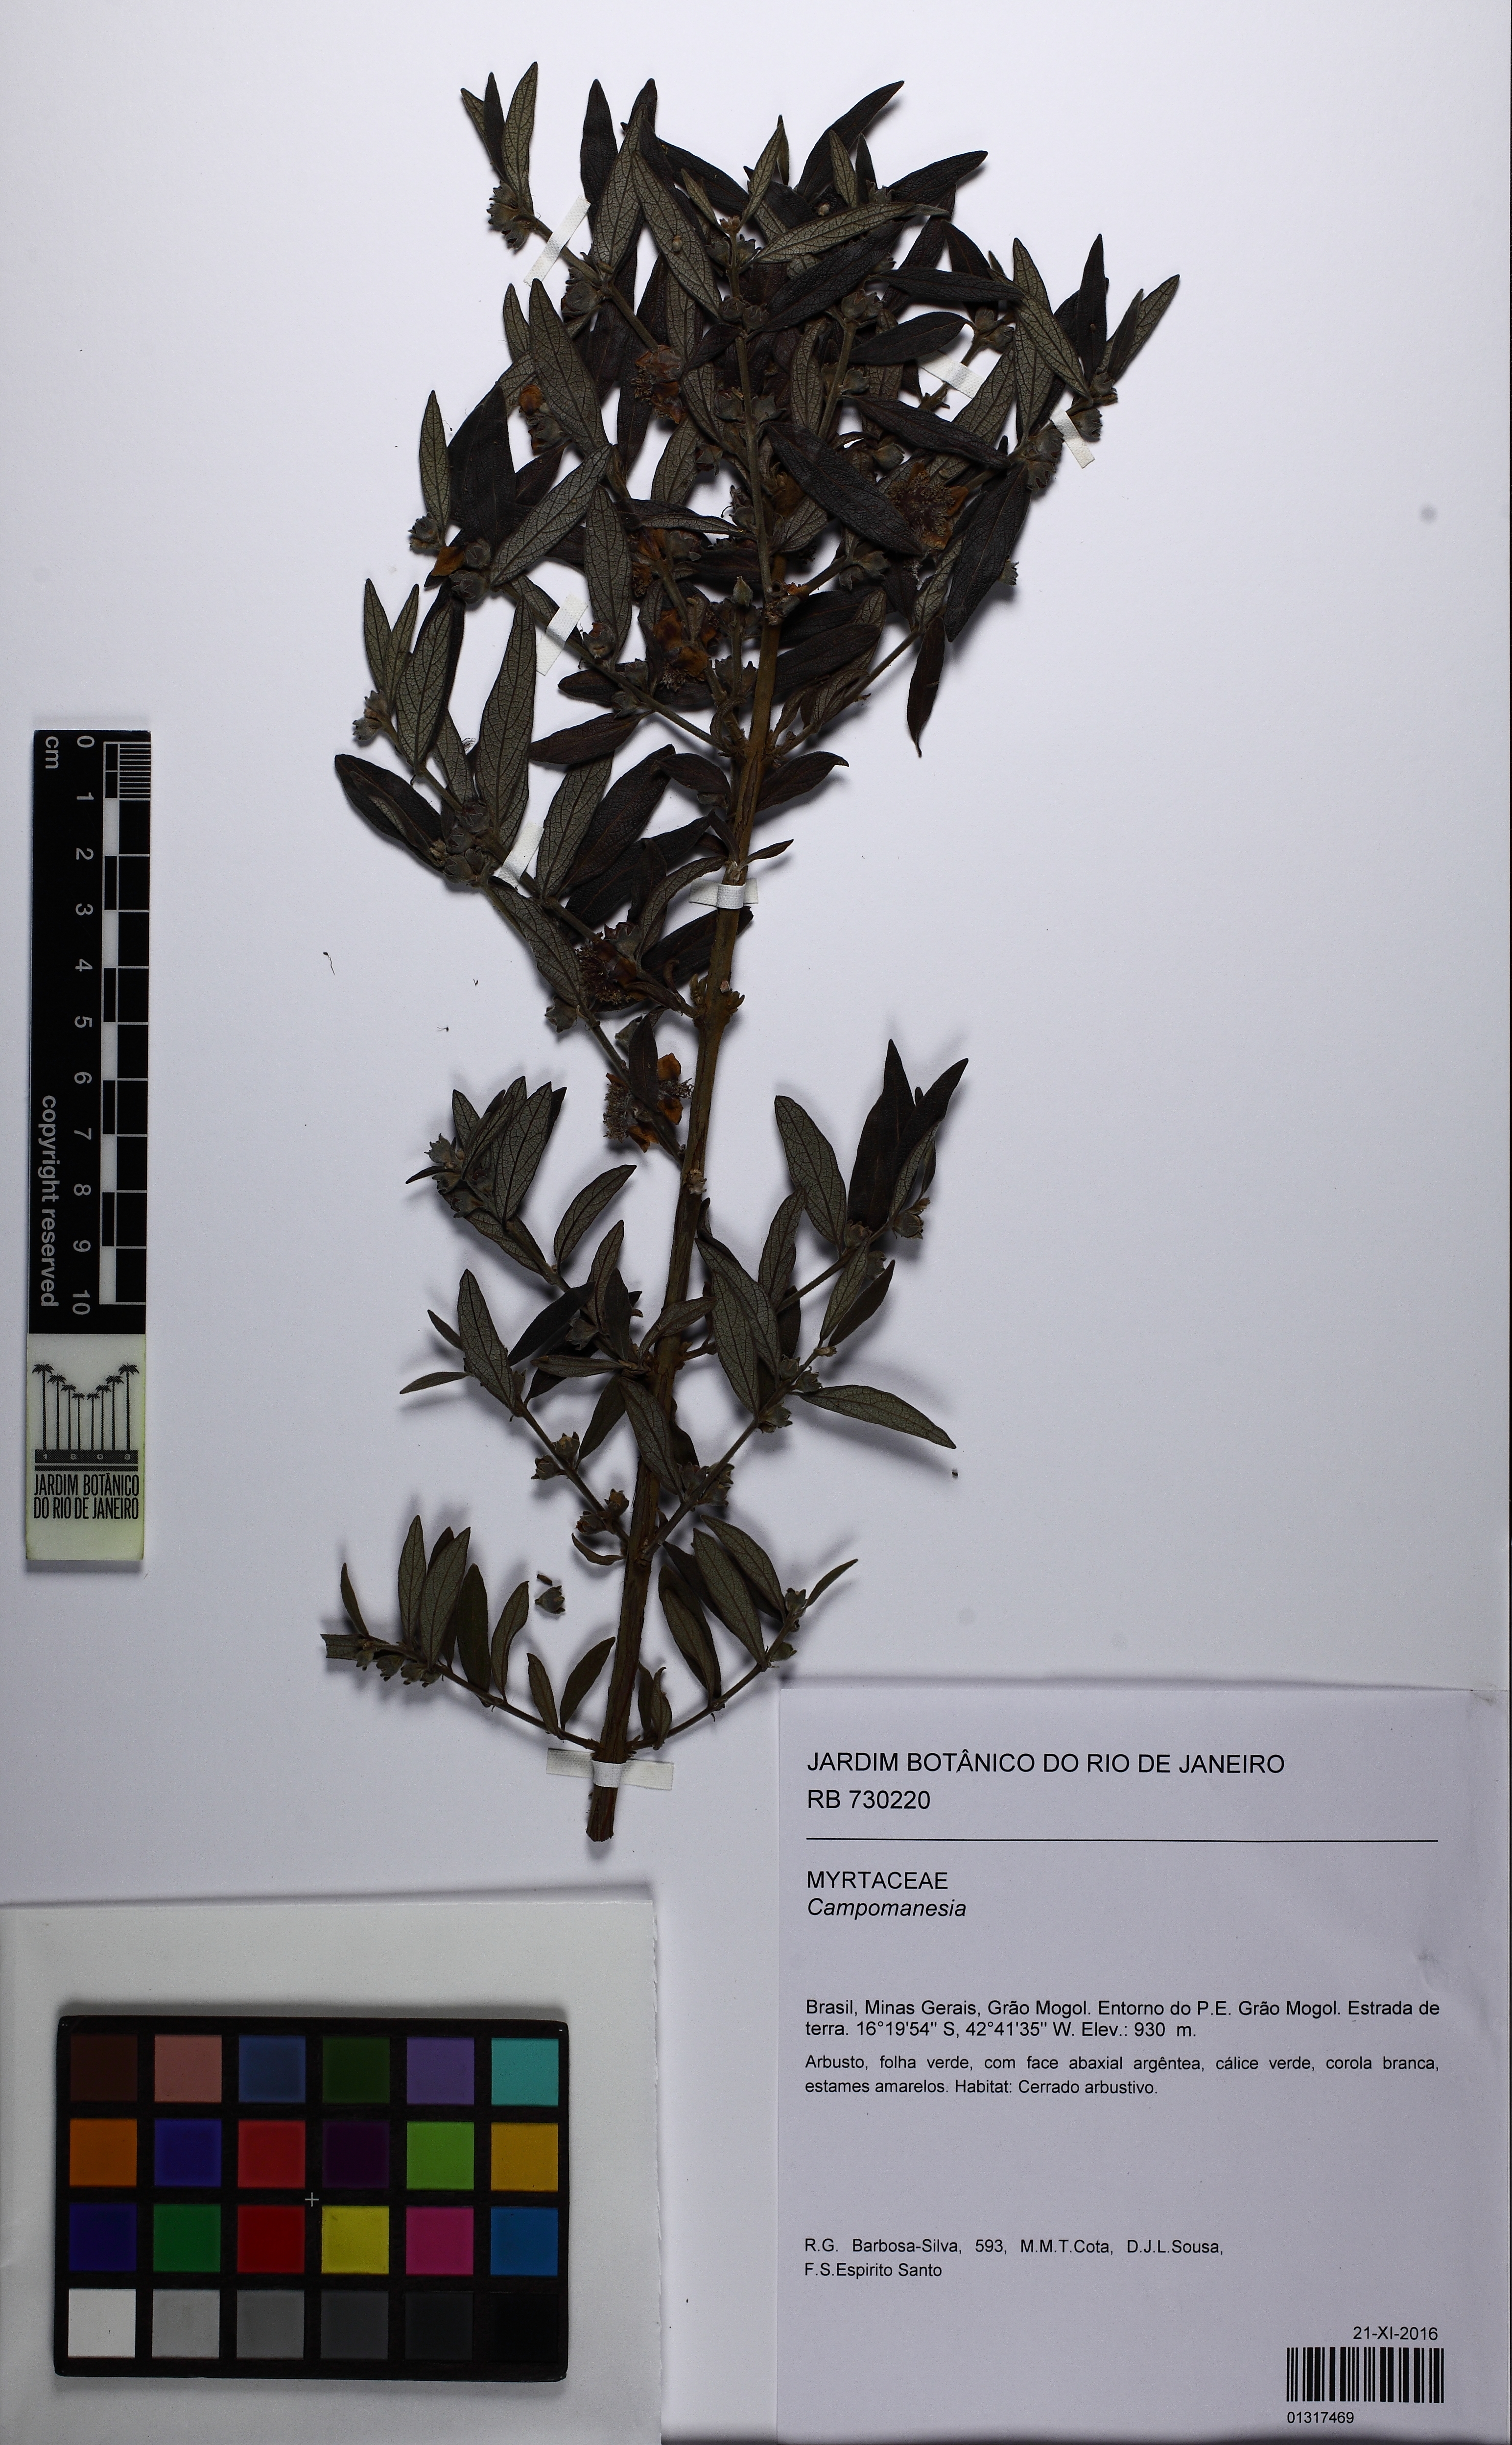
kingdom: Plantae
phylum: Tracheophyta
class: Magnoliopsida
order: Myrtales
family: Myrtaceae
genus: Campomanesia
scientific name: Campomanesia sessiliflora
